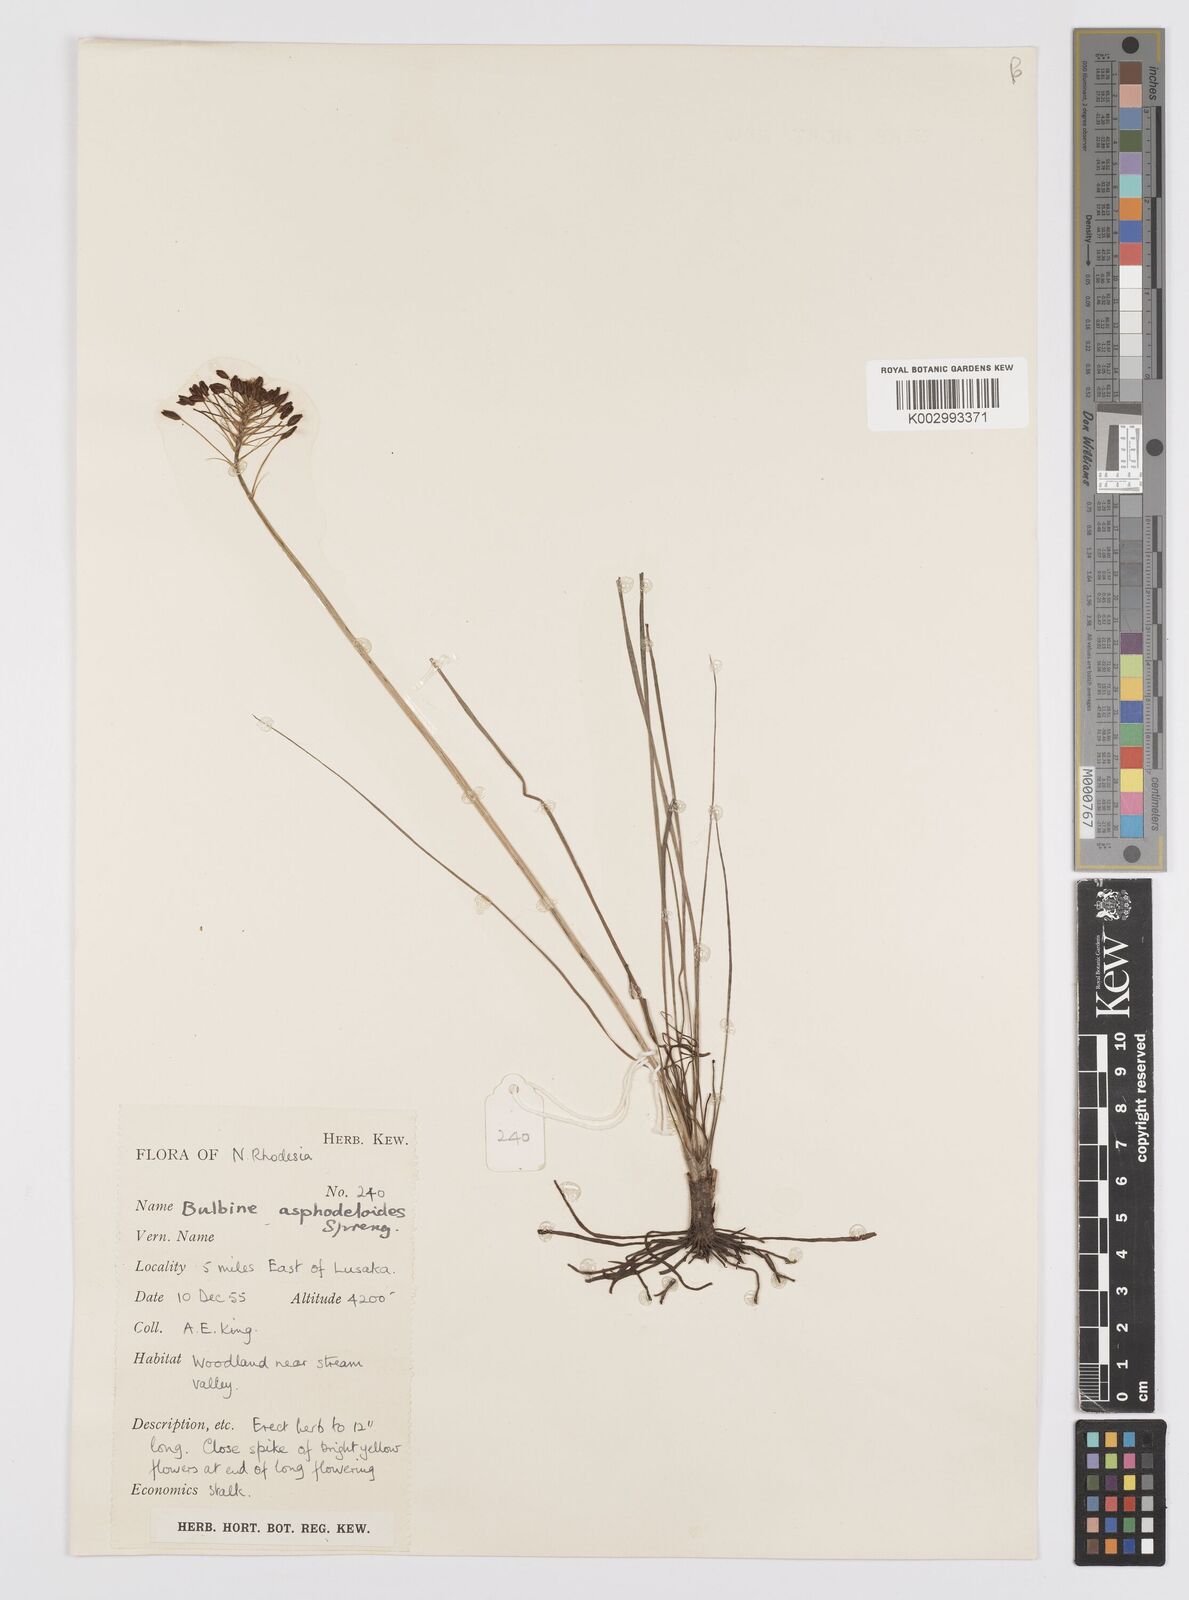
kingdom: Plantae
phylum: Tracheophyta
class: Liliopsida
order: Asparagales
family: Asphodelaceae
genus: Bulbine
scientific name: Bulbine abyssinica
